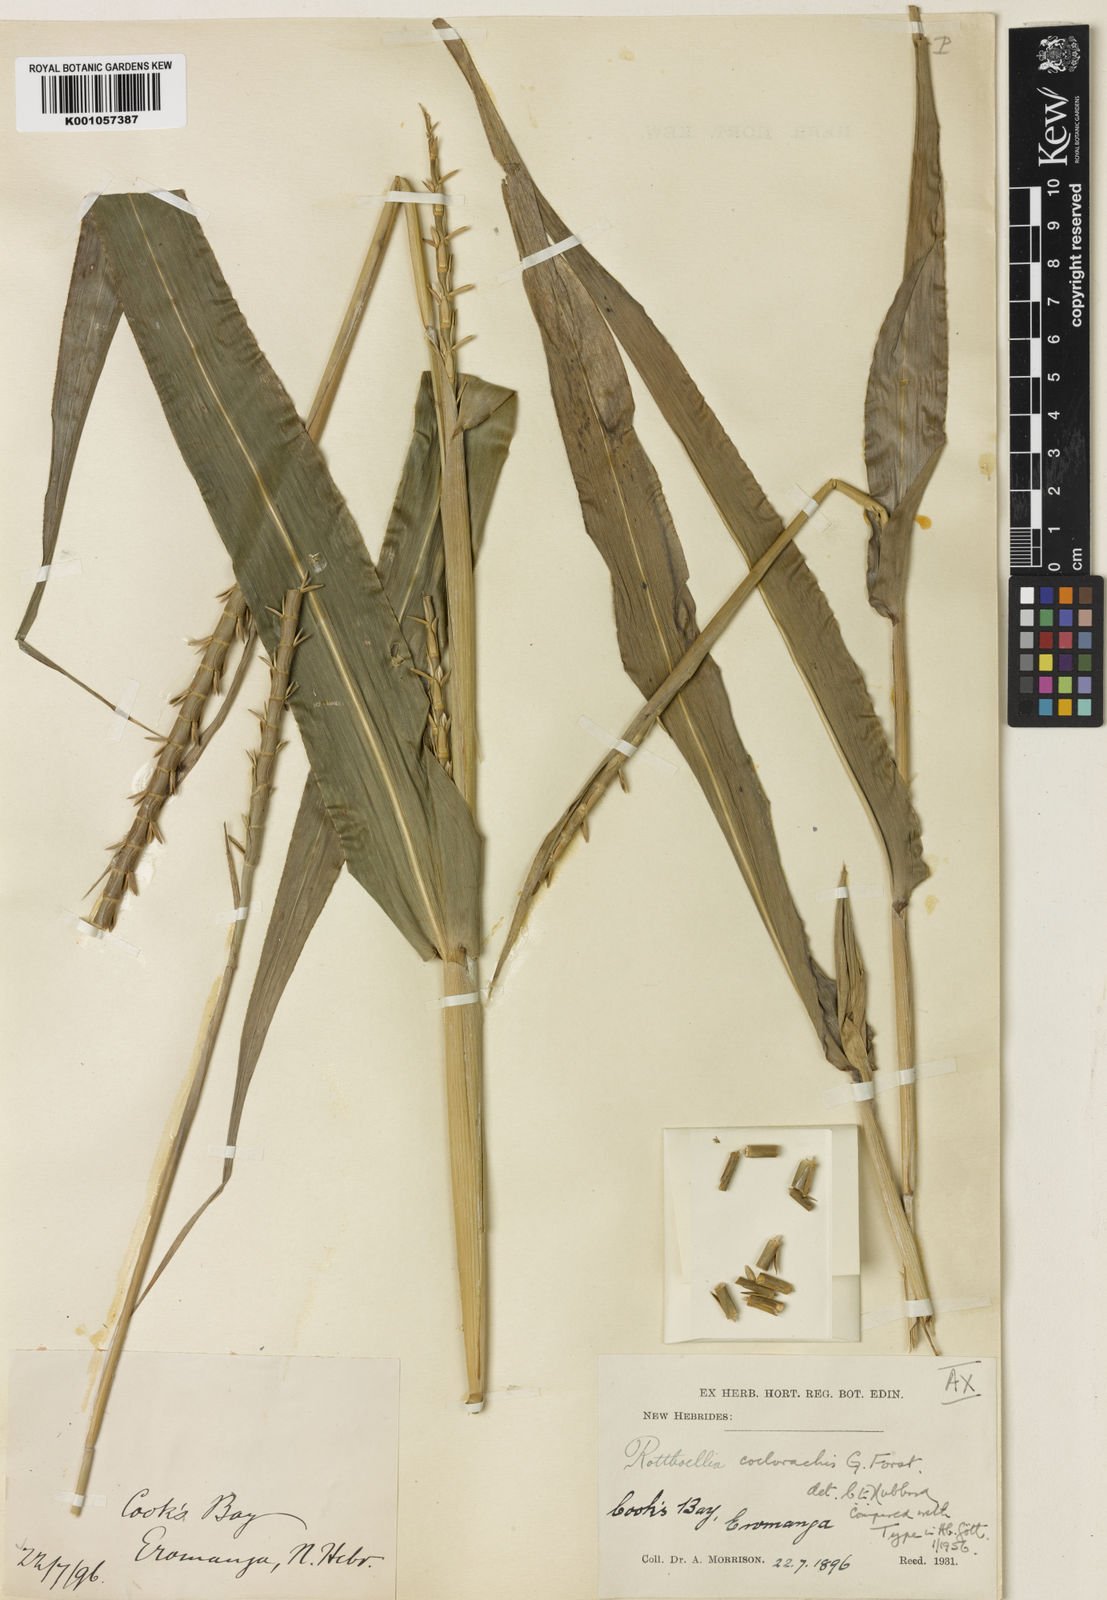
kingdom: Plantae
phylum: Tracheophyta
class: Liliopsida
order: Poales
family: Poaceae
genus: Rottboellia
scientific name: Rottboellia coelorachis
